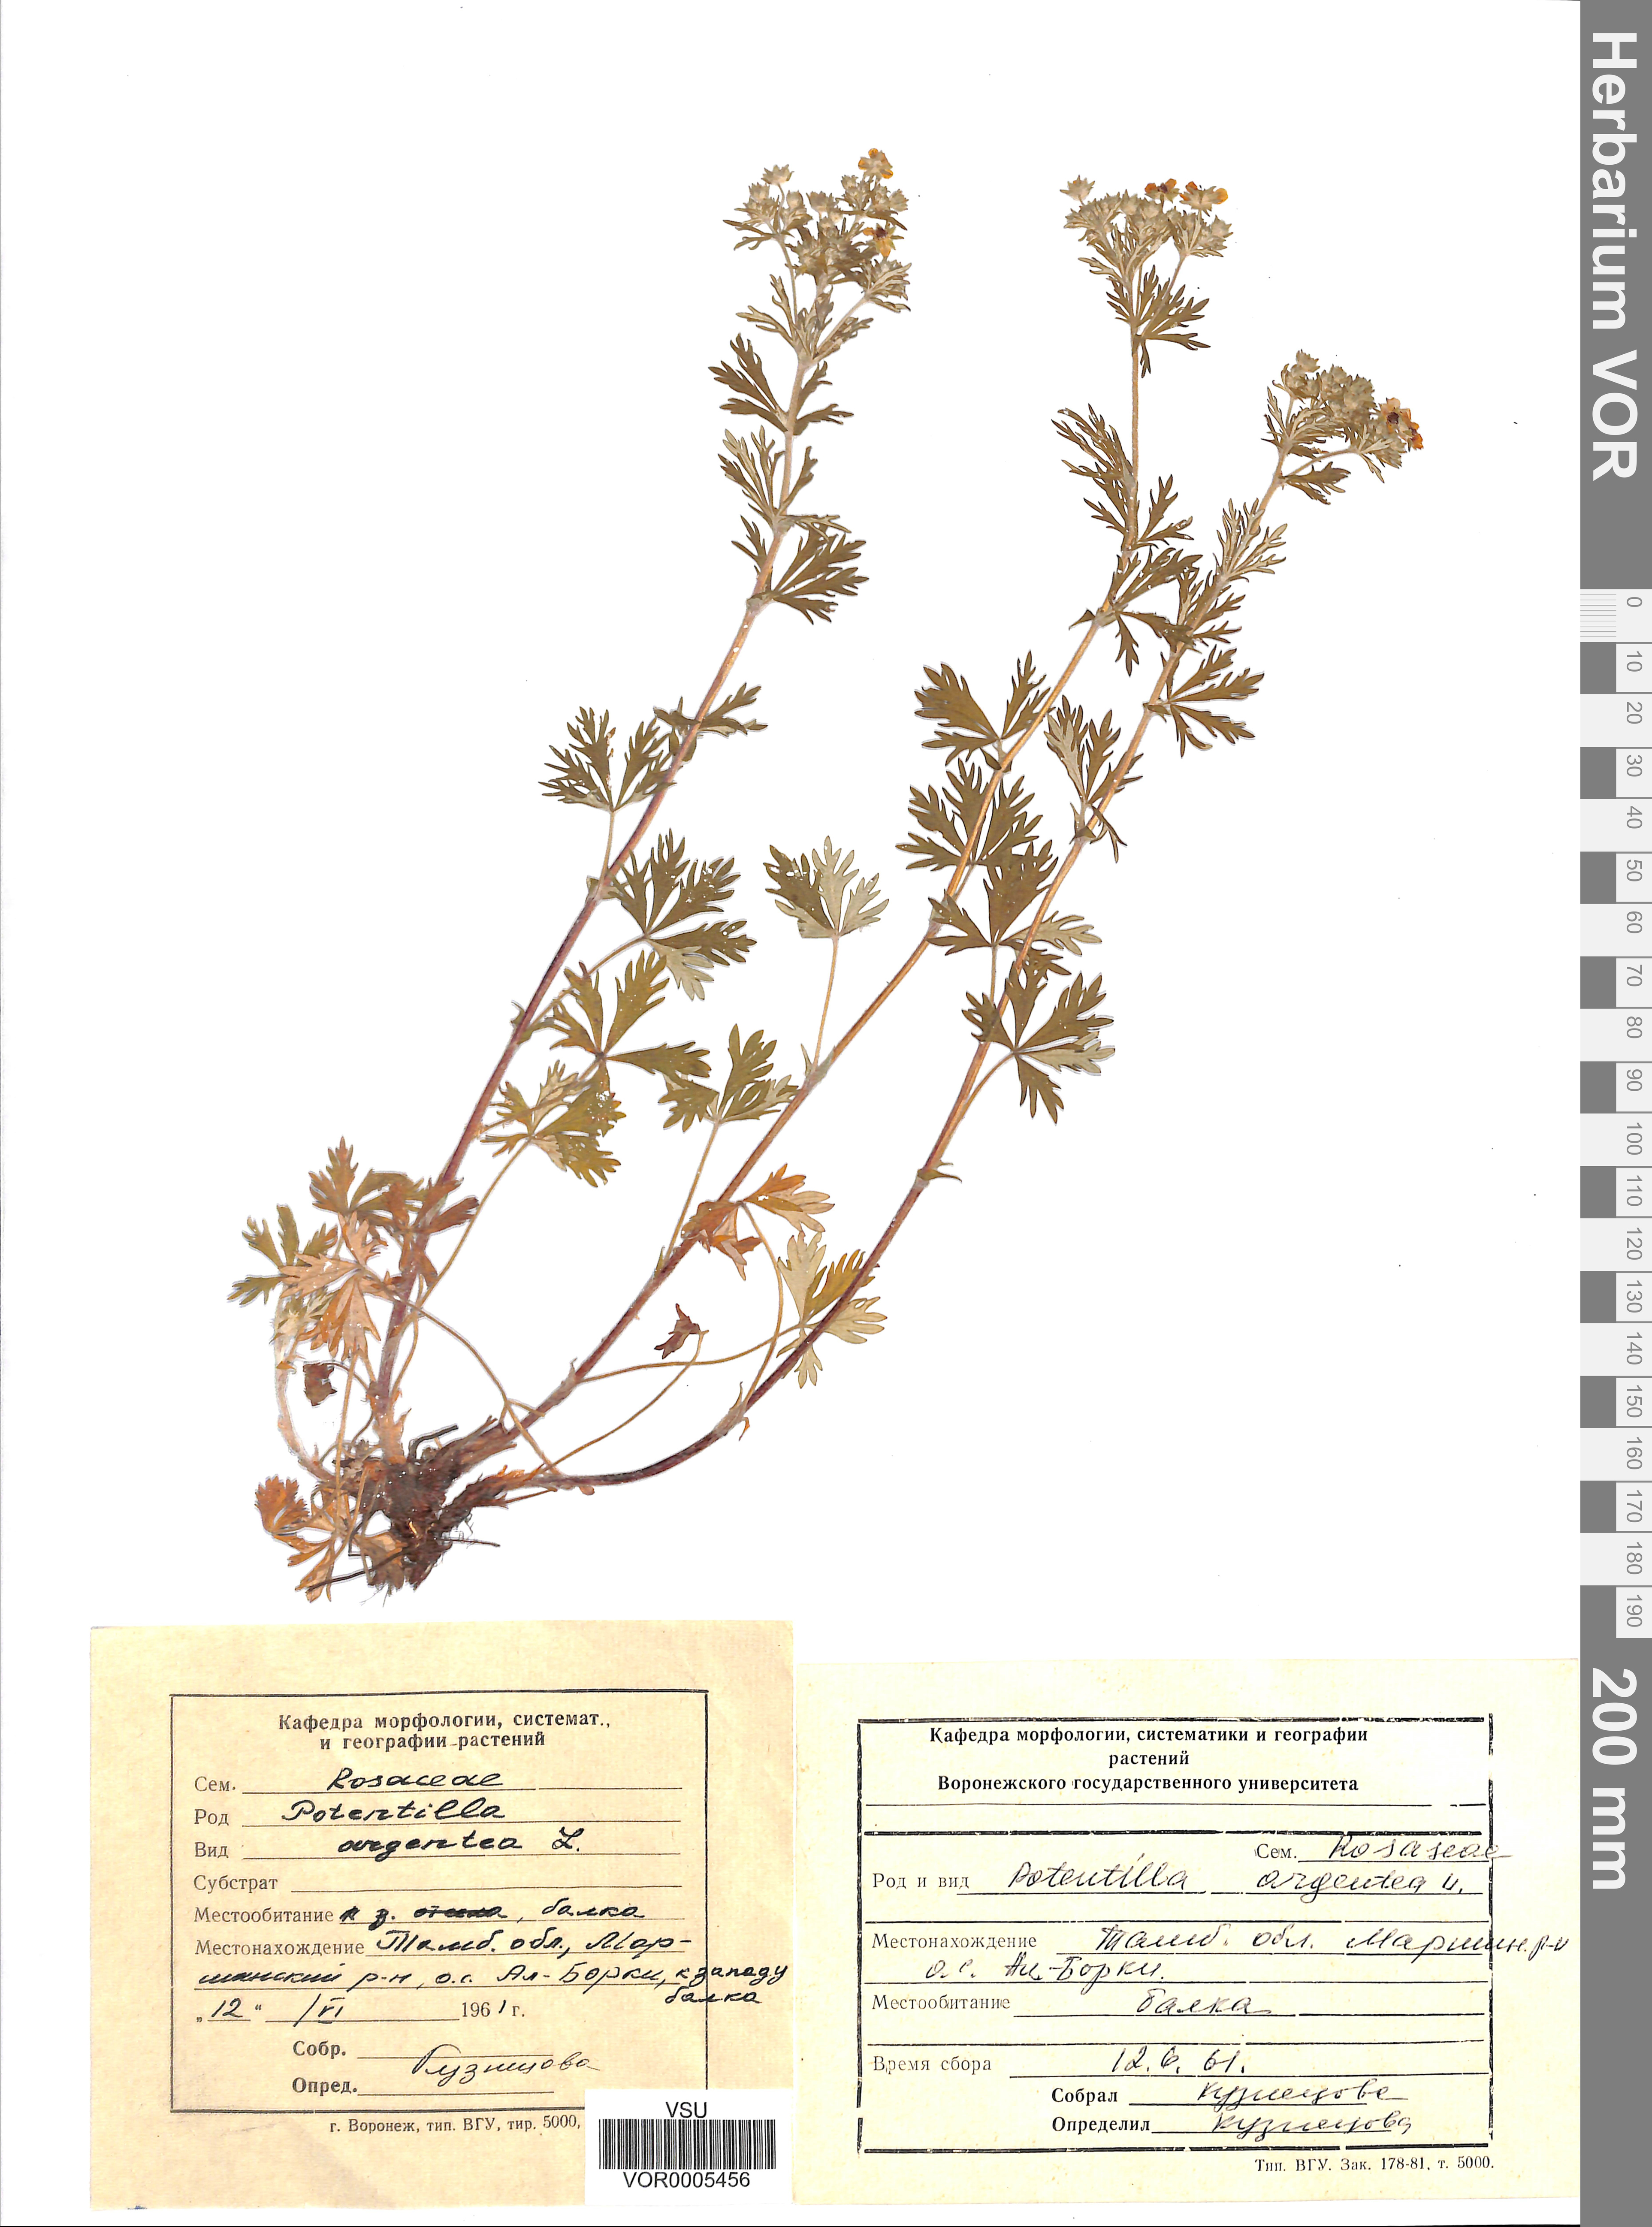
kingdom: Plantae
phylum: Tracheophyta
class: Magnoliopsida
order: Rosales
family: Rosaceae
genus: Potentilla
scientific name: Potentilla argentea
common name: Hoary cinquefoil
